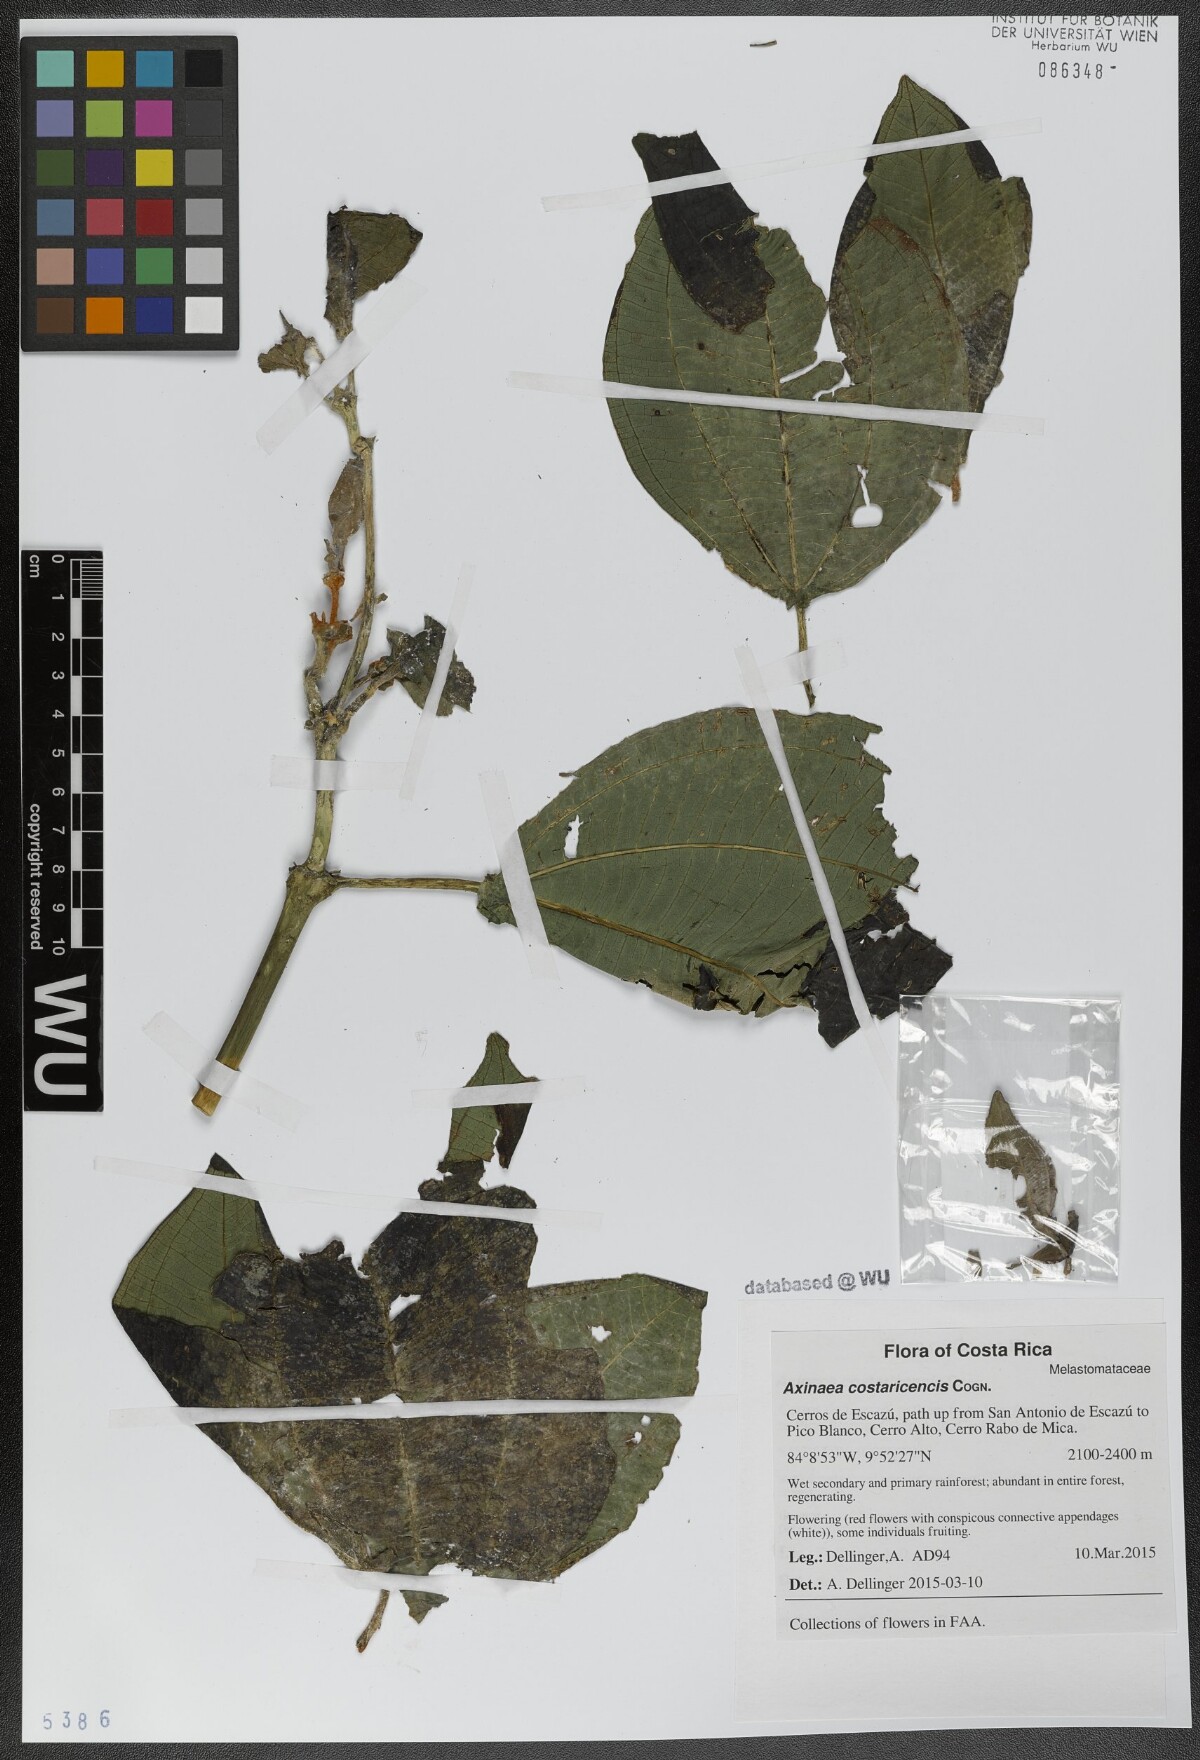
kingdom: Plantae
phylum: Tracheophyta
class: Magnoliopsida
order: Myrtales
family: Melastomataceae
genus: Axinaea
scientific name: Axinaea costaricencis
